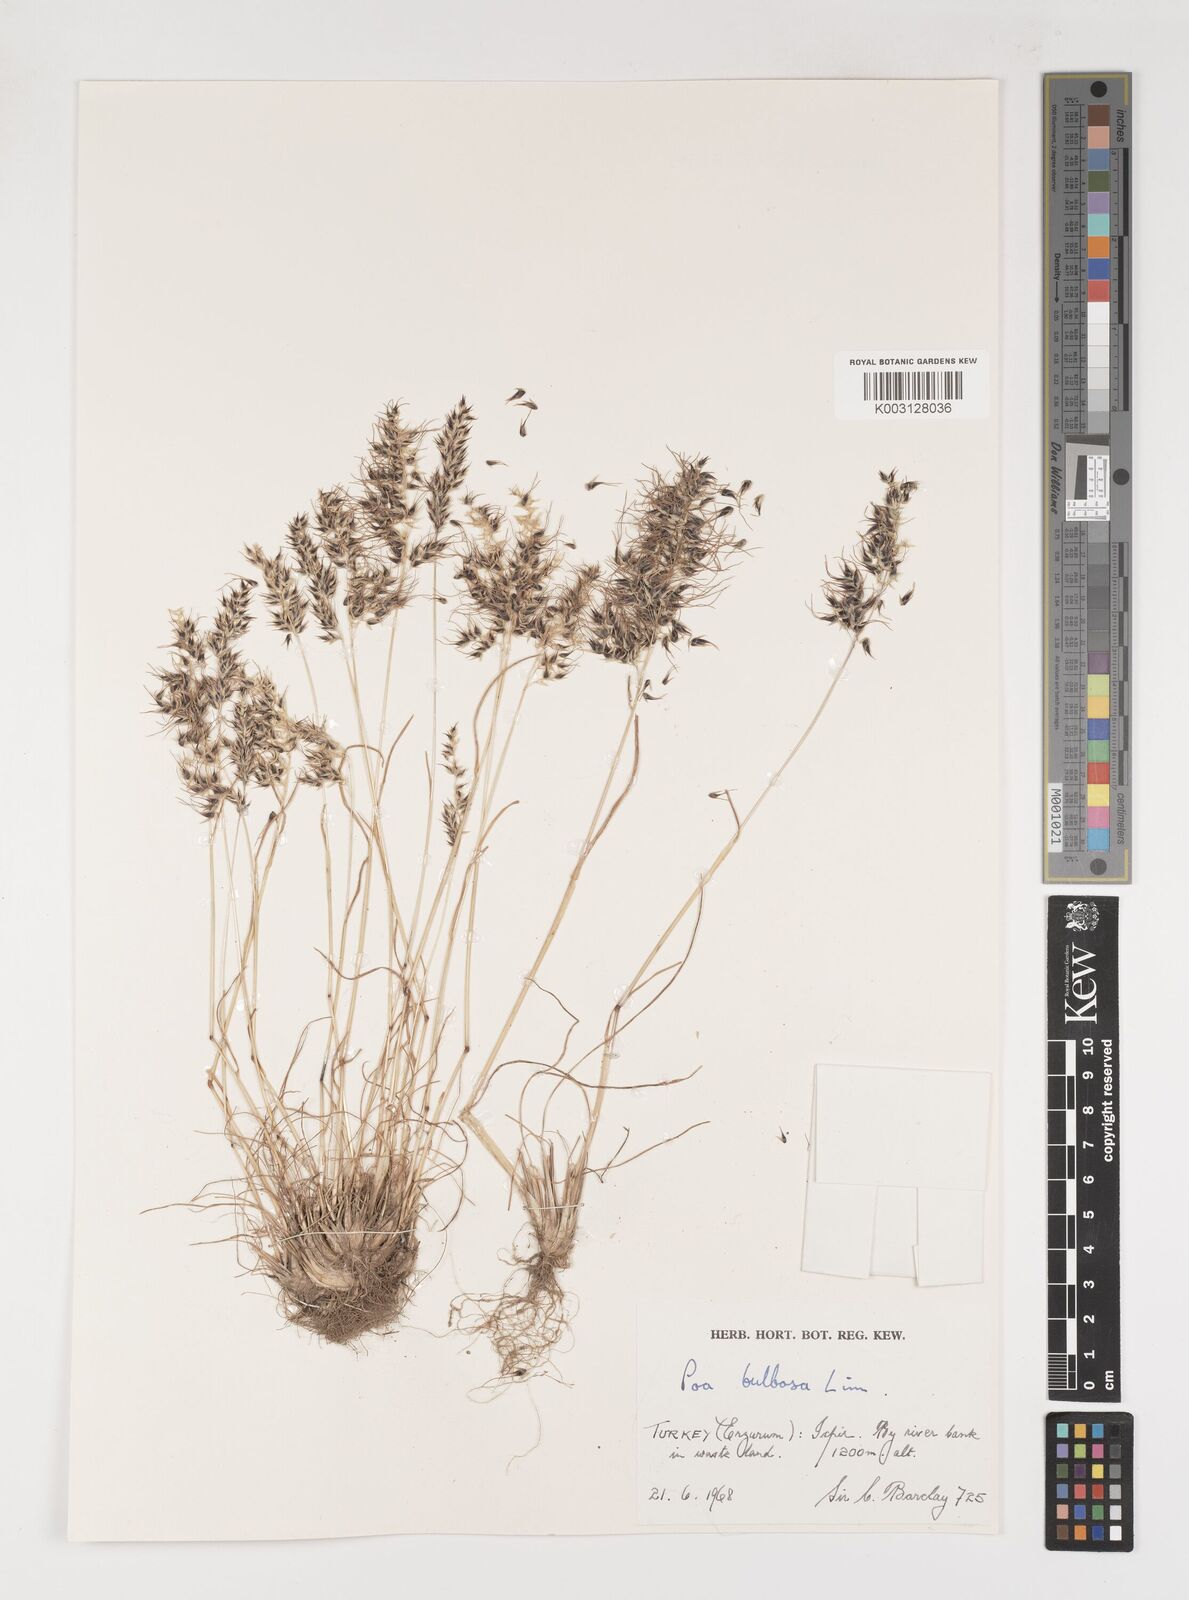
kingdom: Plantae
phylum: Tracheophyta
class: Liliopsida
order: Poales
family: Poaceae
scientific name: Poaceae
